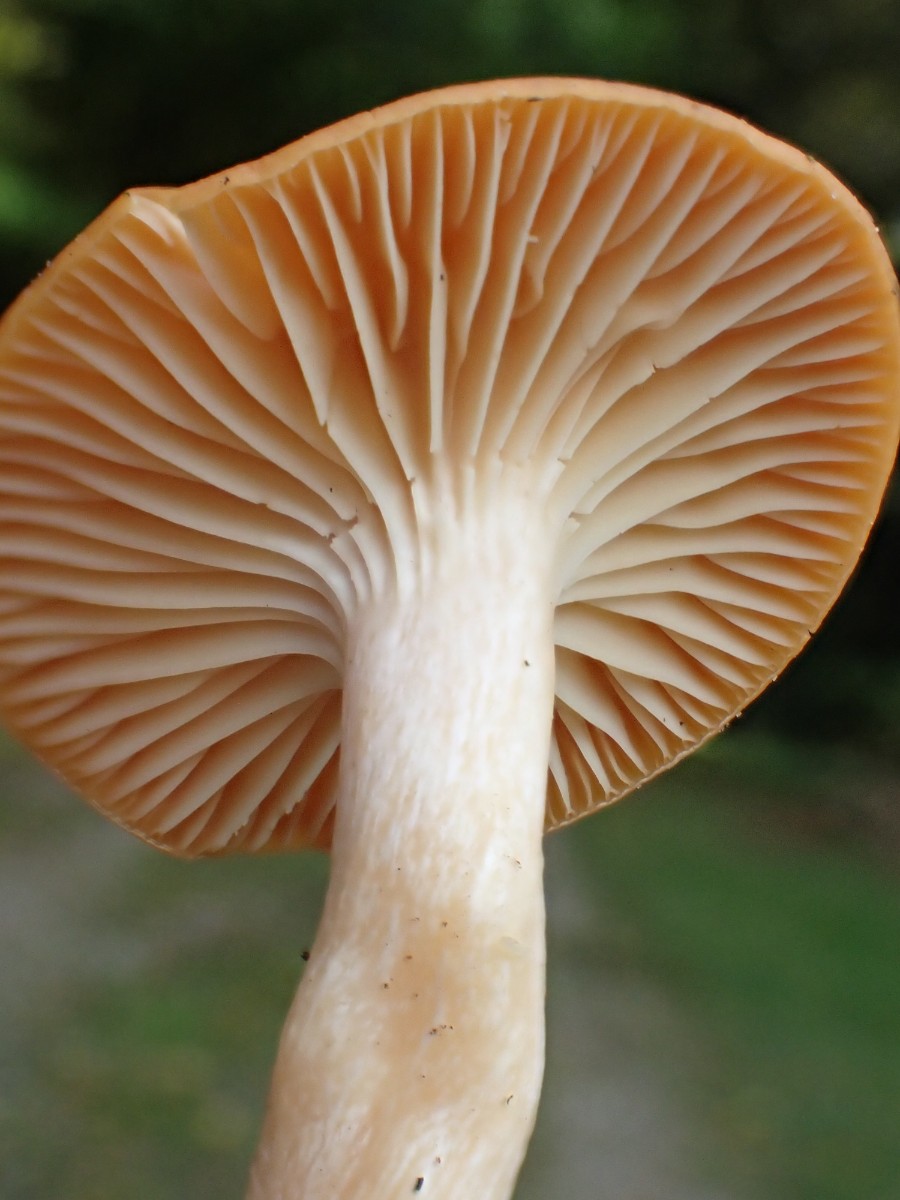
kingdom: Fungi
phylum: Basidiomycota
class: Agaricomycetes
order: Agaricales
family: Hygrophoraceae
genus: Cuphophyllus
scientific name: Cuphophyllus pratensis
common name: eng-vokshat
